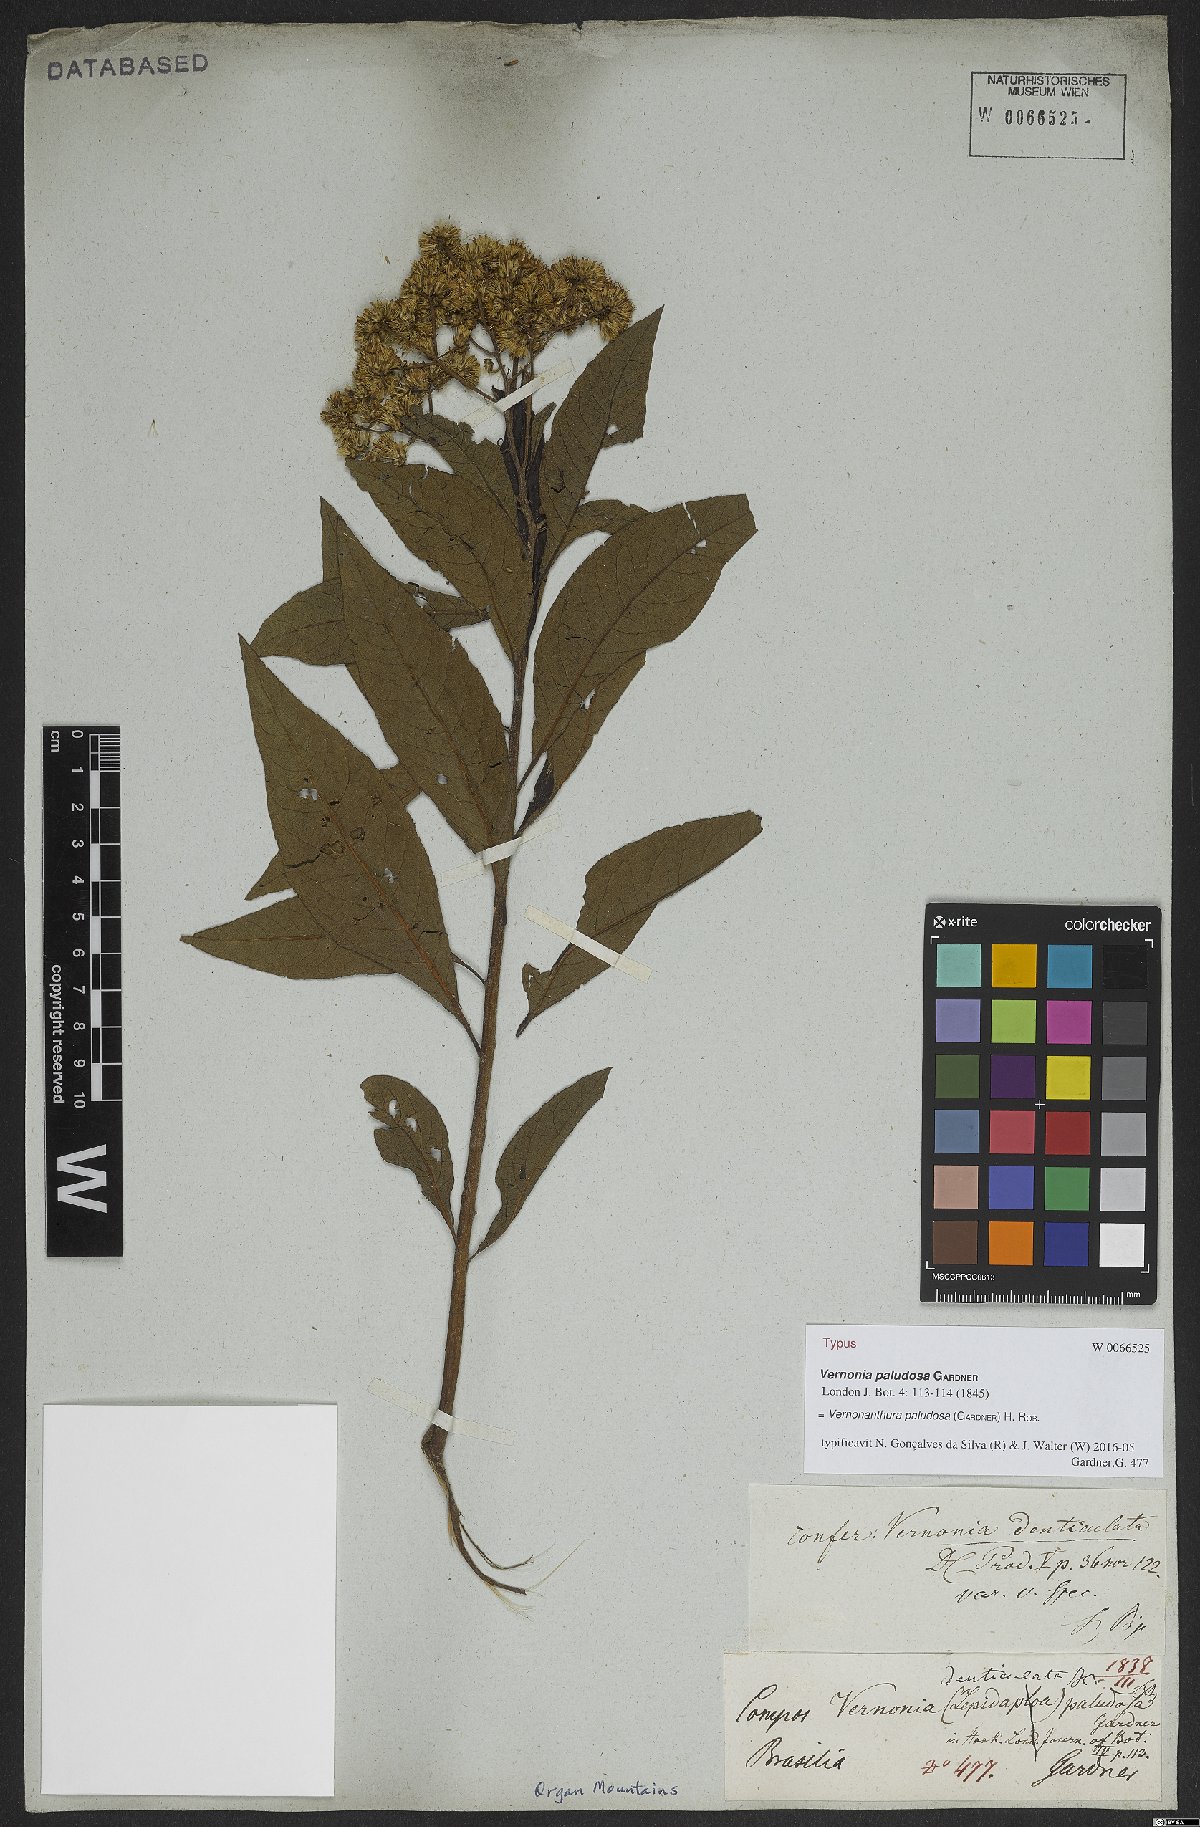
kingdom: Plantae
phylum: Tracheophyta
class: Magnoliopsida
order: Asterales
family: Asteraceae
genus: Vernonanthura
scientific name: Vernonanthura paludosa
